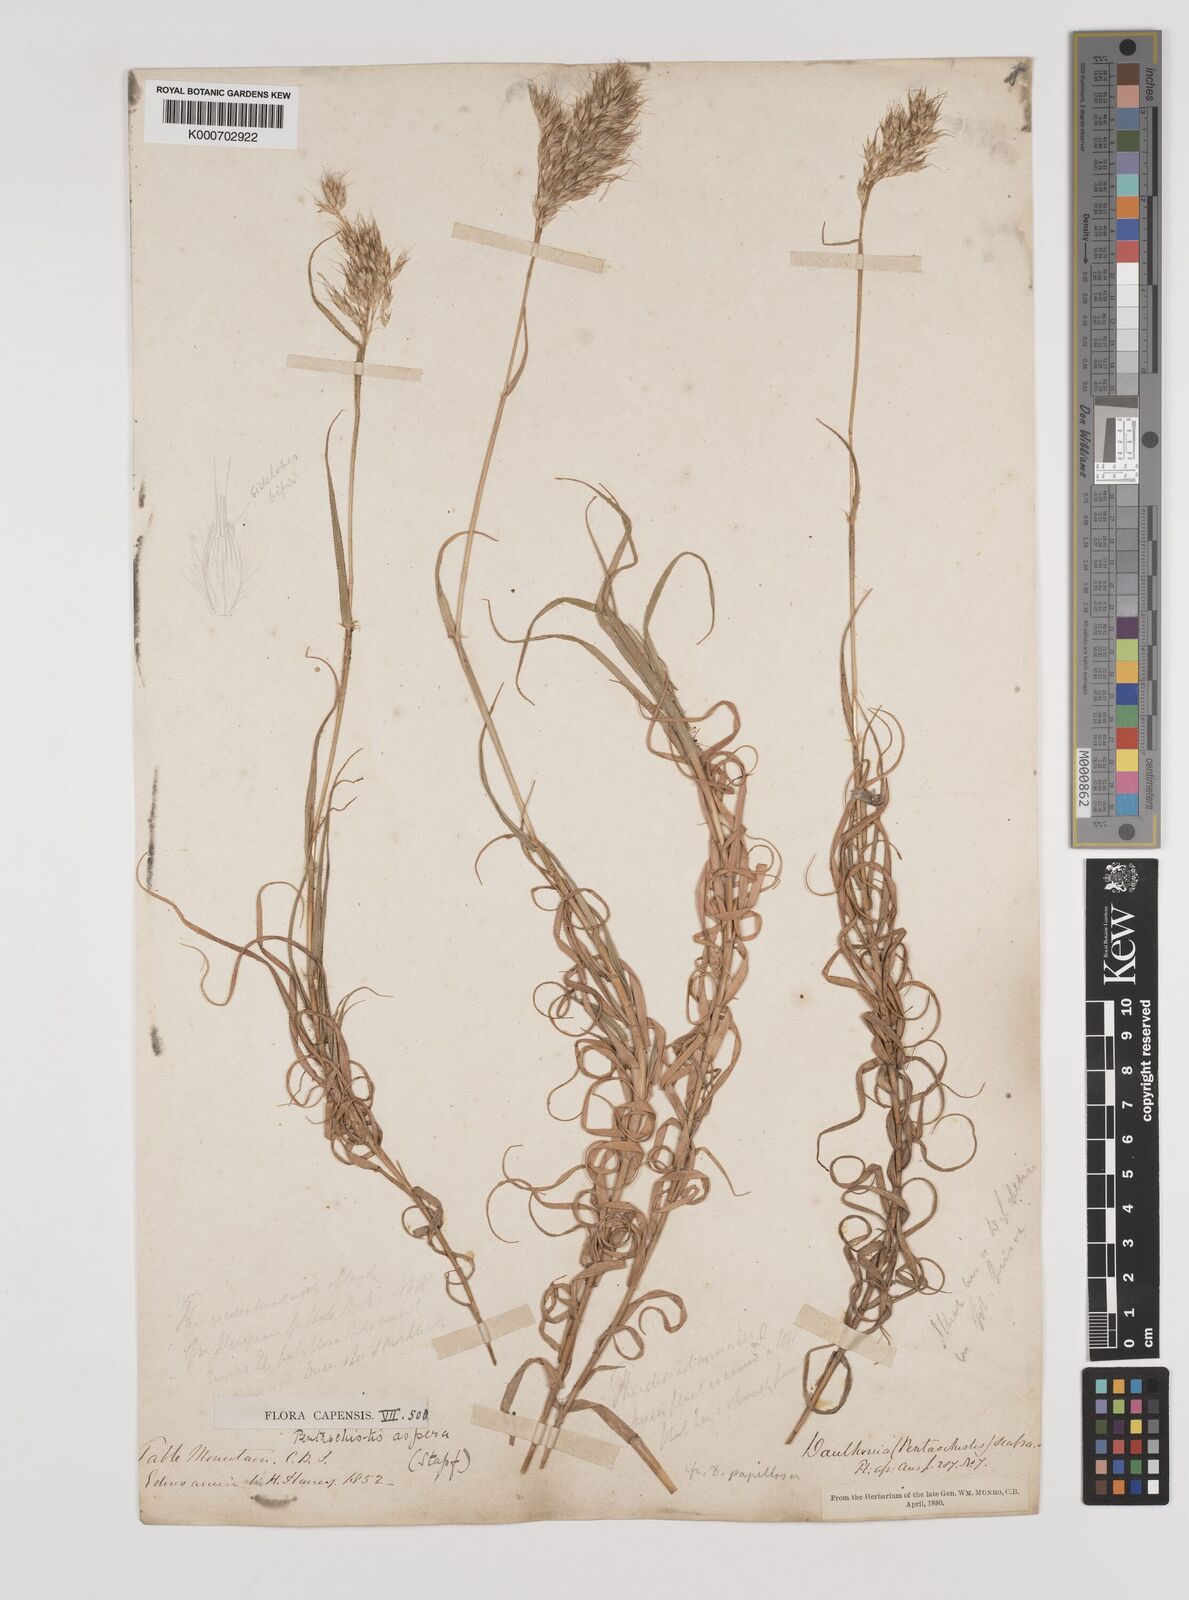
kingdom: Plantae
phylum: Tracheophyta
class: Liliopsida
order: Poales
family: Poaceae
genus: Pentameris
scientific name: Pentameris aspera
